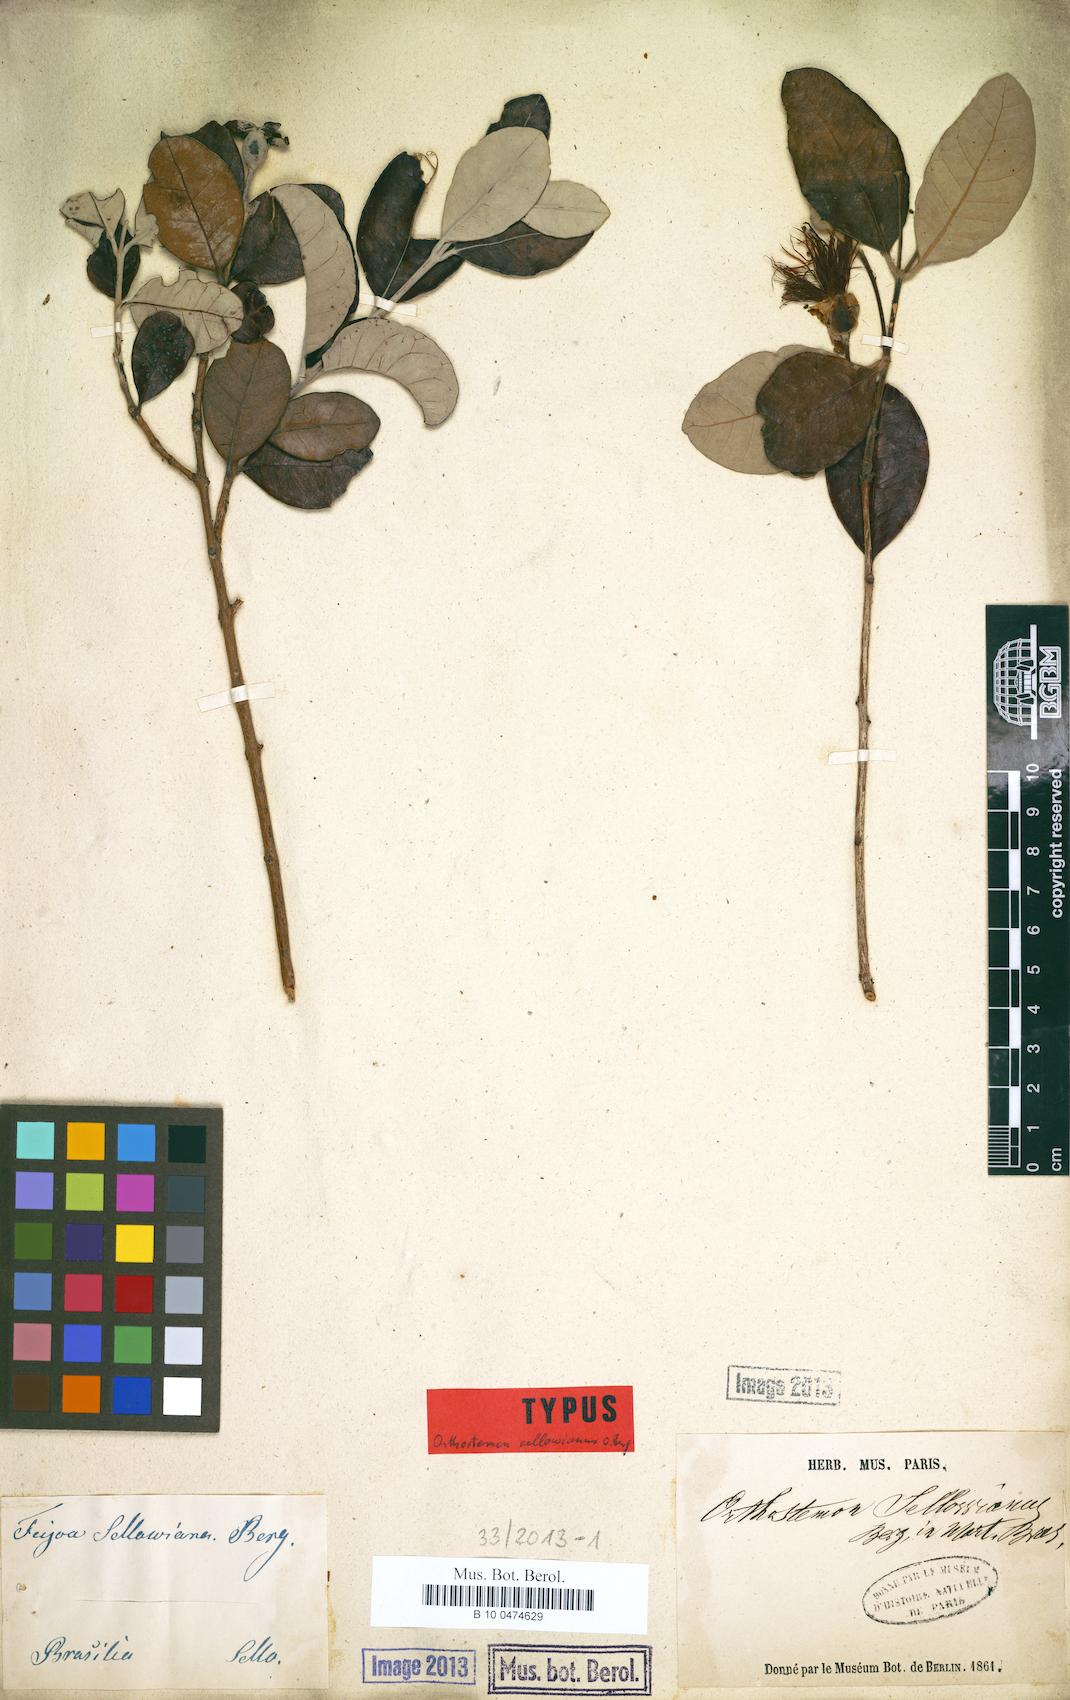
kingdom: Plantae
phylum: Tracheophyta
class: Magnoliopsida
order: Myrtales
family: Myrtaceae
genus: Feijoa
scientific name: Feijoa sellowiana
